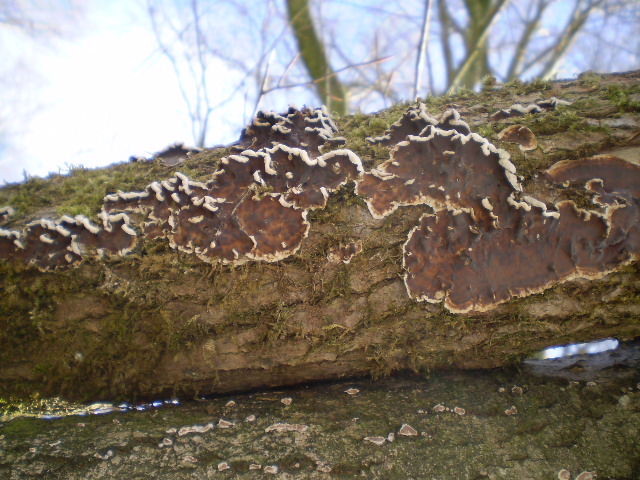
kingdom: Fungi
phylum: Basidiomycota
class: Agaricomycetes
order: Agaricales
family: Cyphellaceae
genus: Chondrostereum
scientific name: Chondrostereum purpureum
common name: purpurlædersvamp
